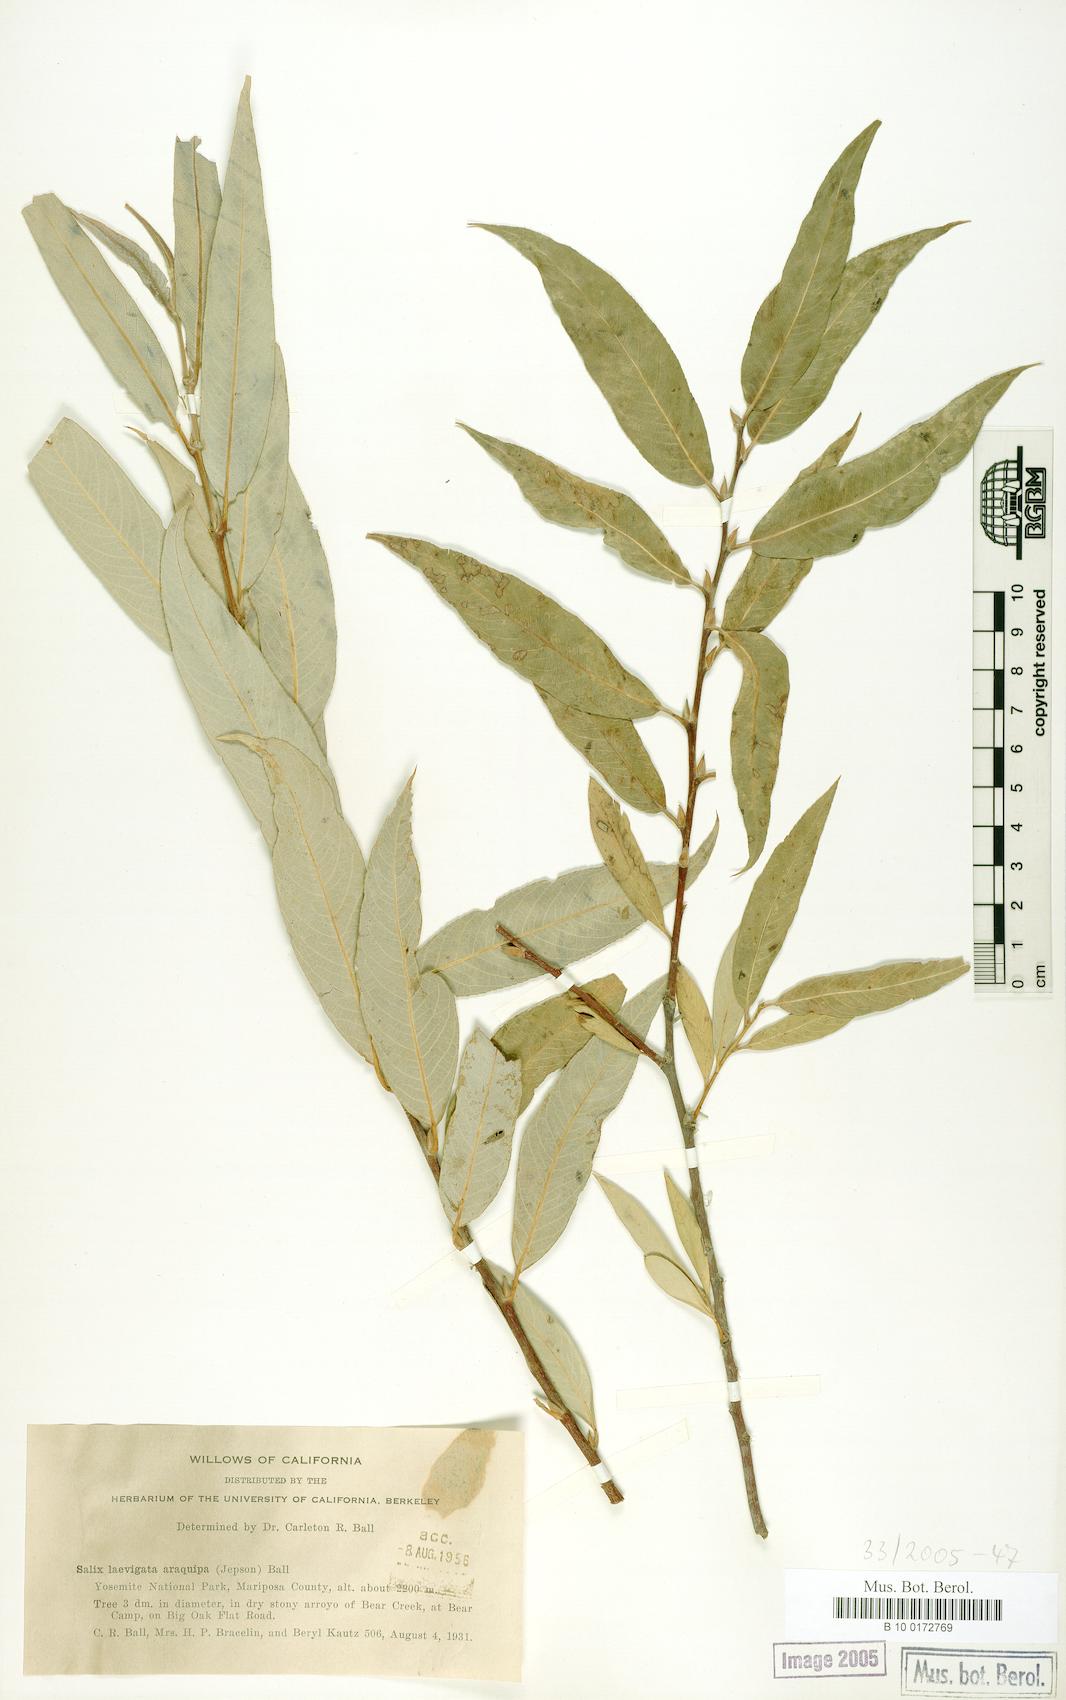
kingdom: Plantae
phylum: Tracheophyta
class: Magnoliopsida
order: Malpighiales
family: Salicaceae
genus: Salix
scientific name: Salix laevigata
